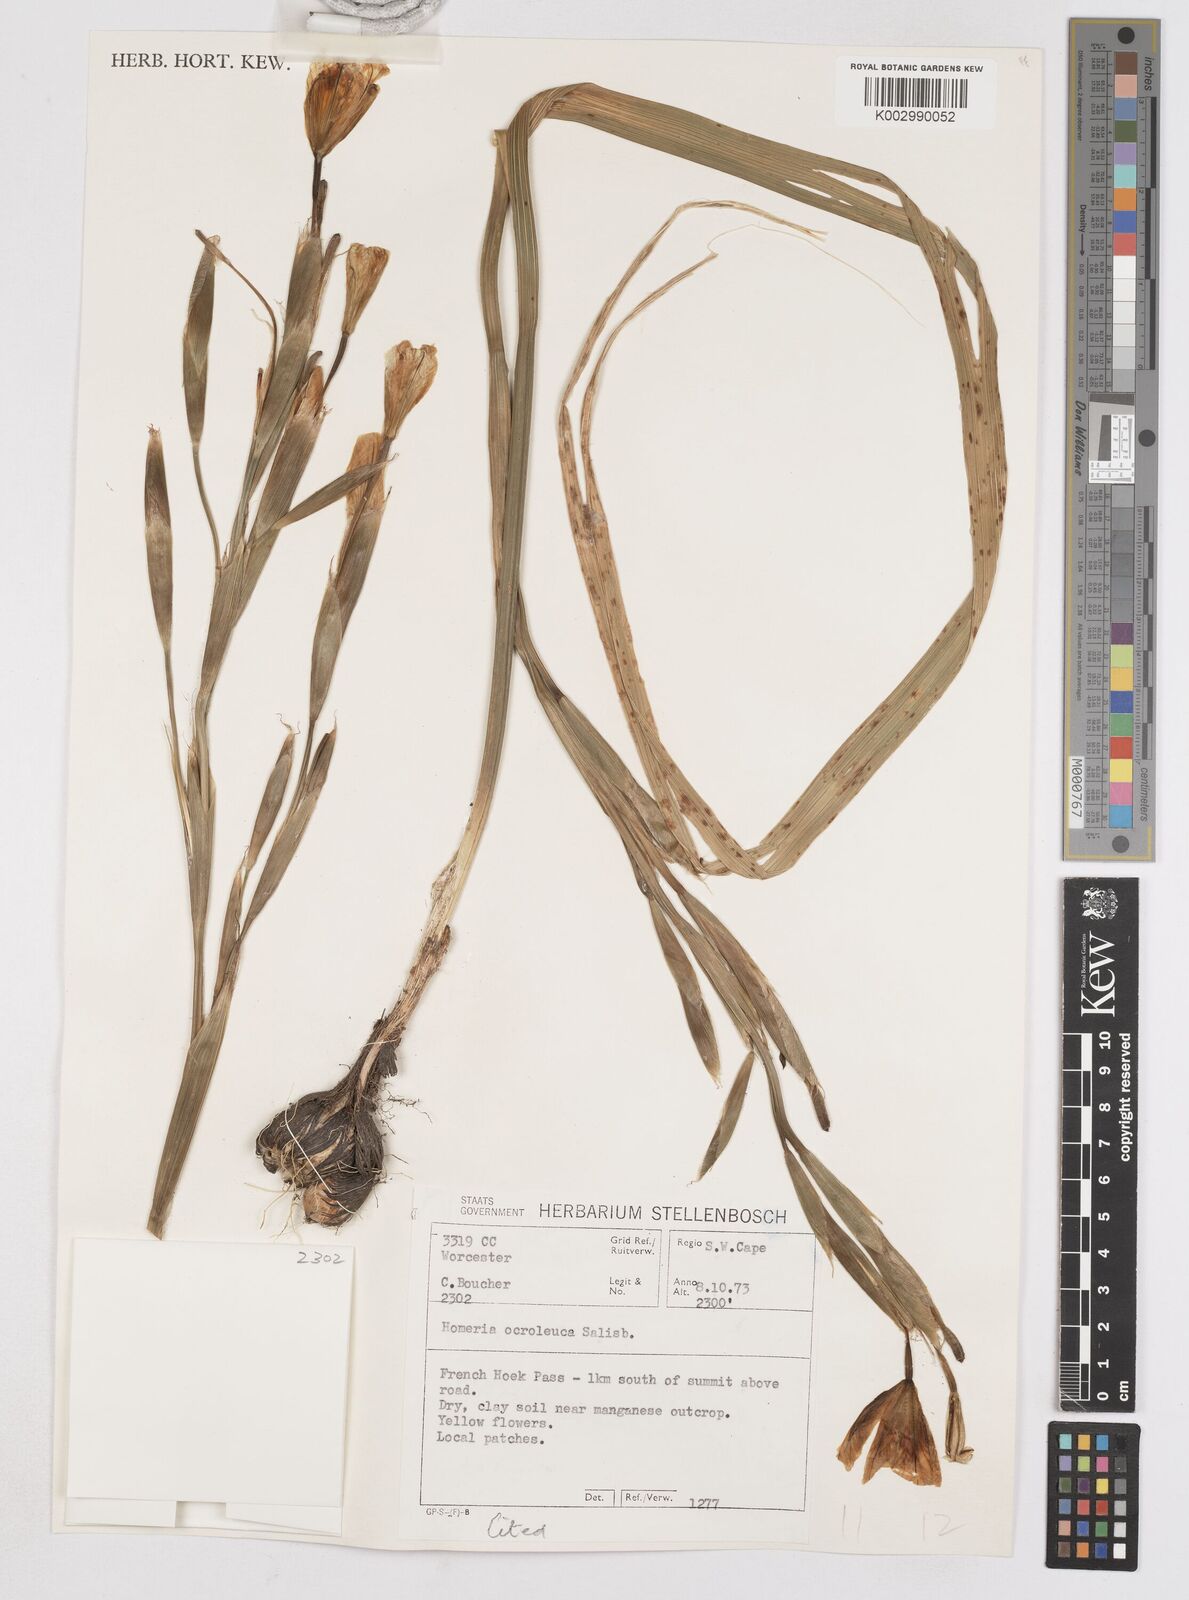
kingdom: Plantae
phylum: Tracheophyta
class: Liliopsida
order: Asparagales
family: Iridaceae
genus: Moraea
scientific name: Moraea ochroleuca
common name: Red tulp
